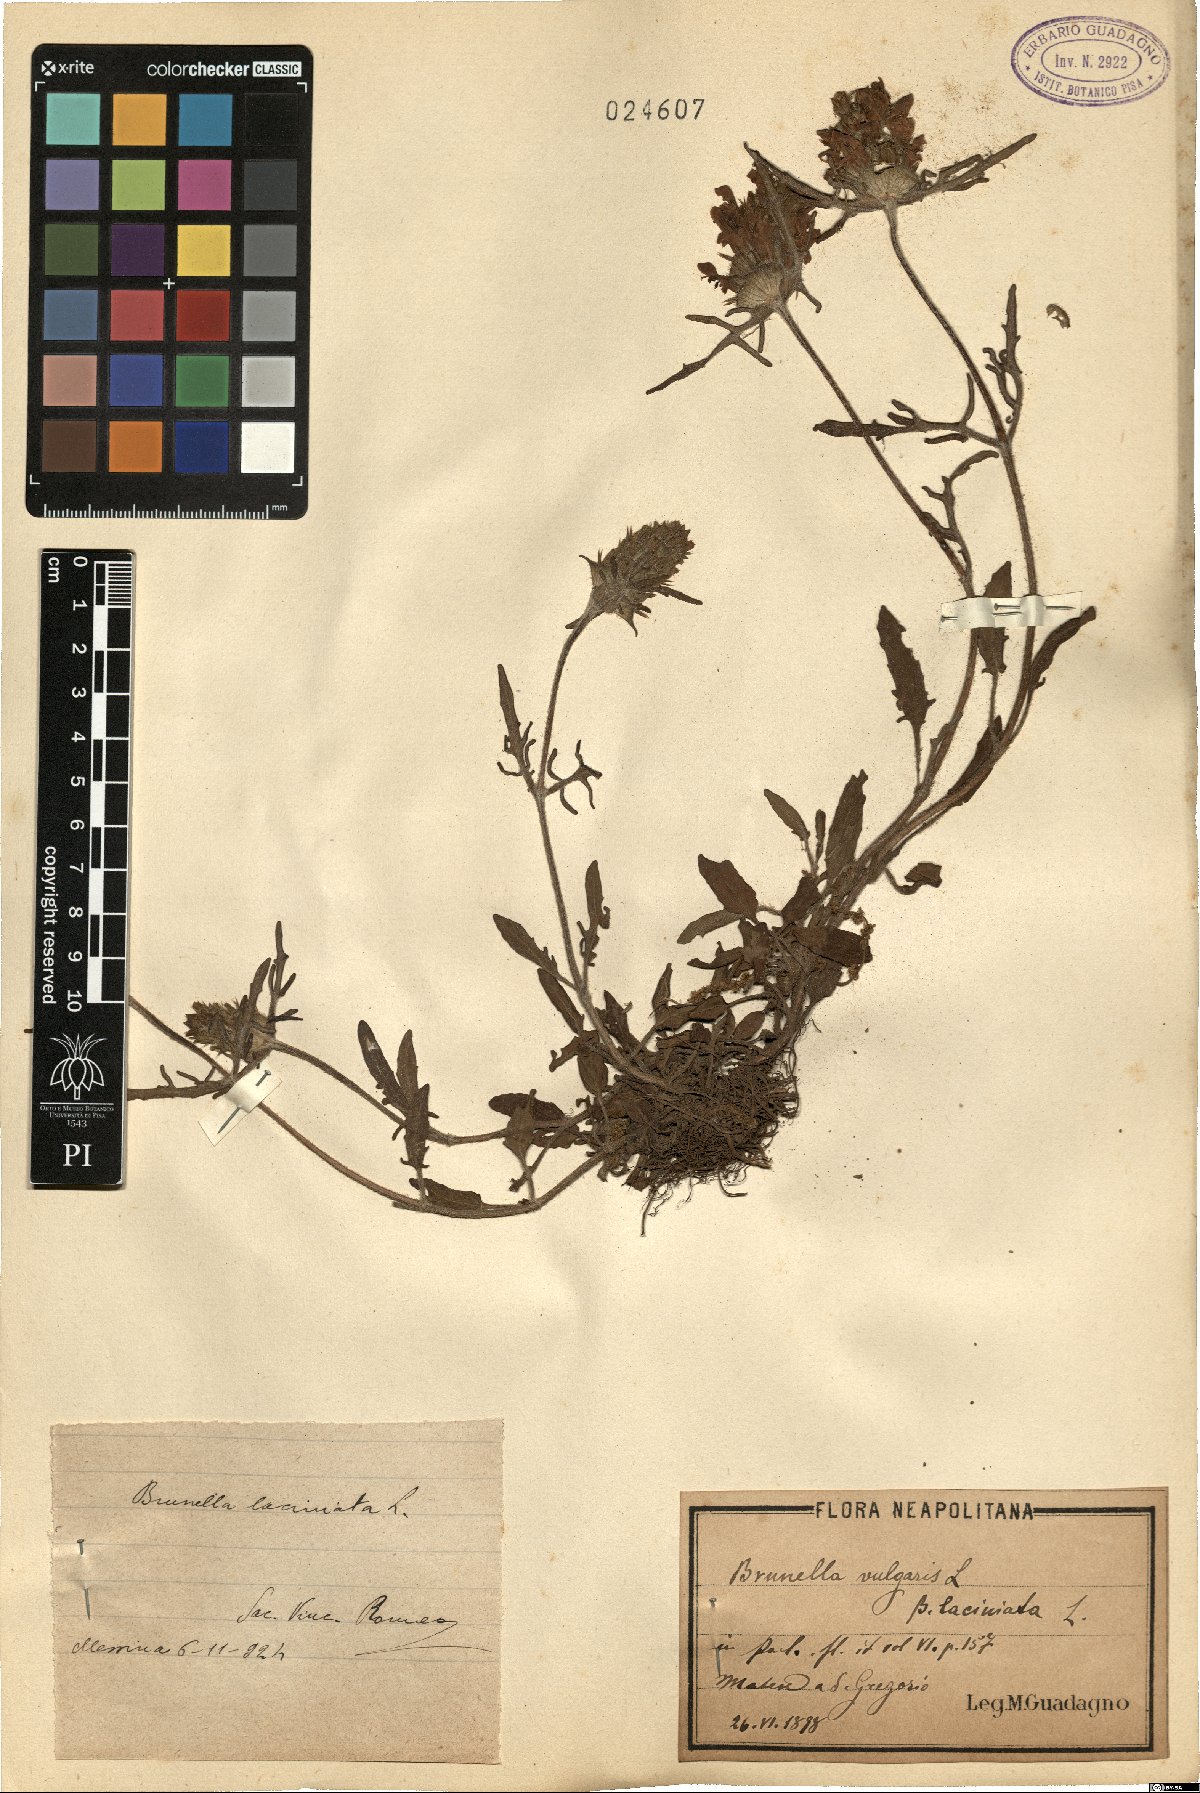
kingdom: Plantae
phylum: Tracheophyta
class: Magnoliopsida
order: Lamiales
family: Lamiaceae
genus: Prunella
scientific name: Prunella vulgaris
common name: Heal-all
